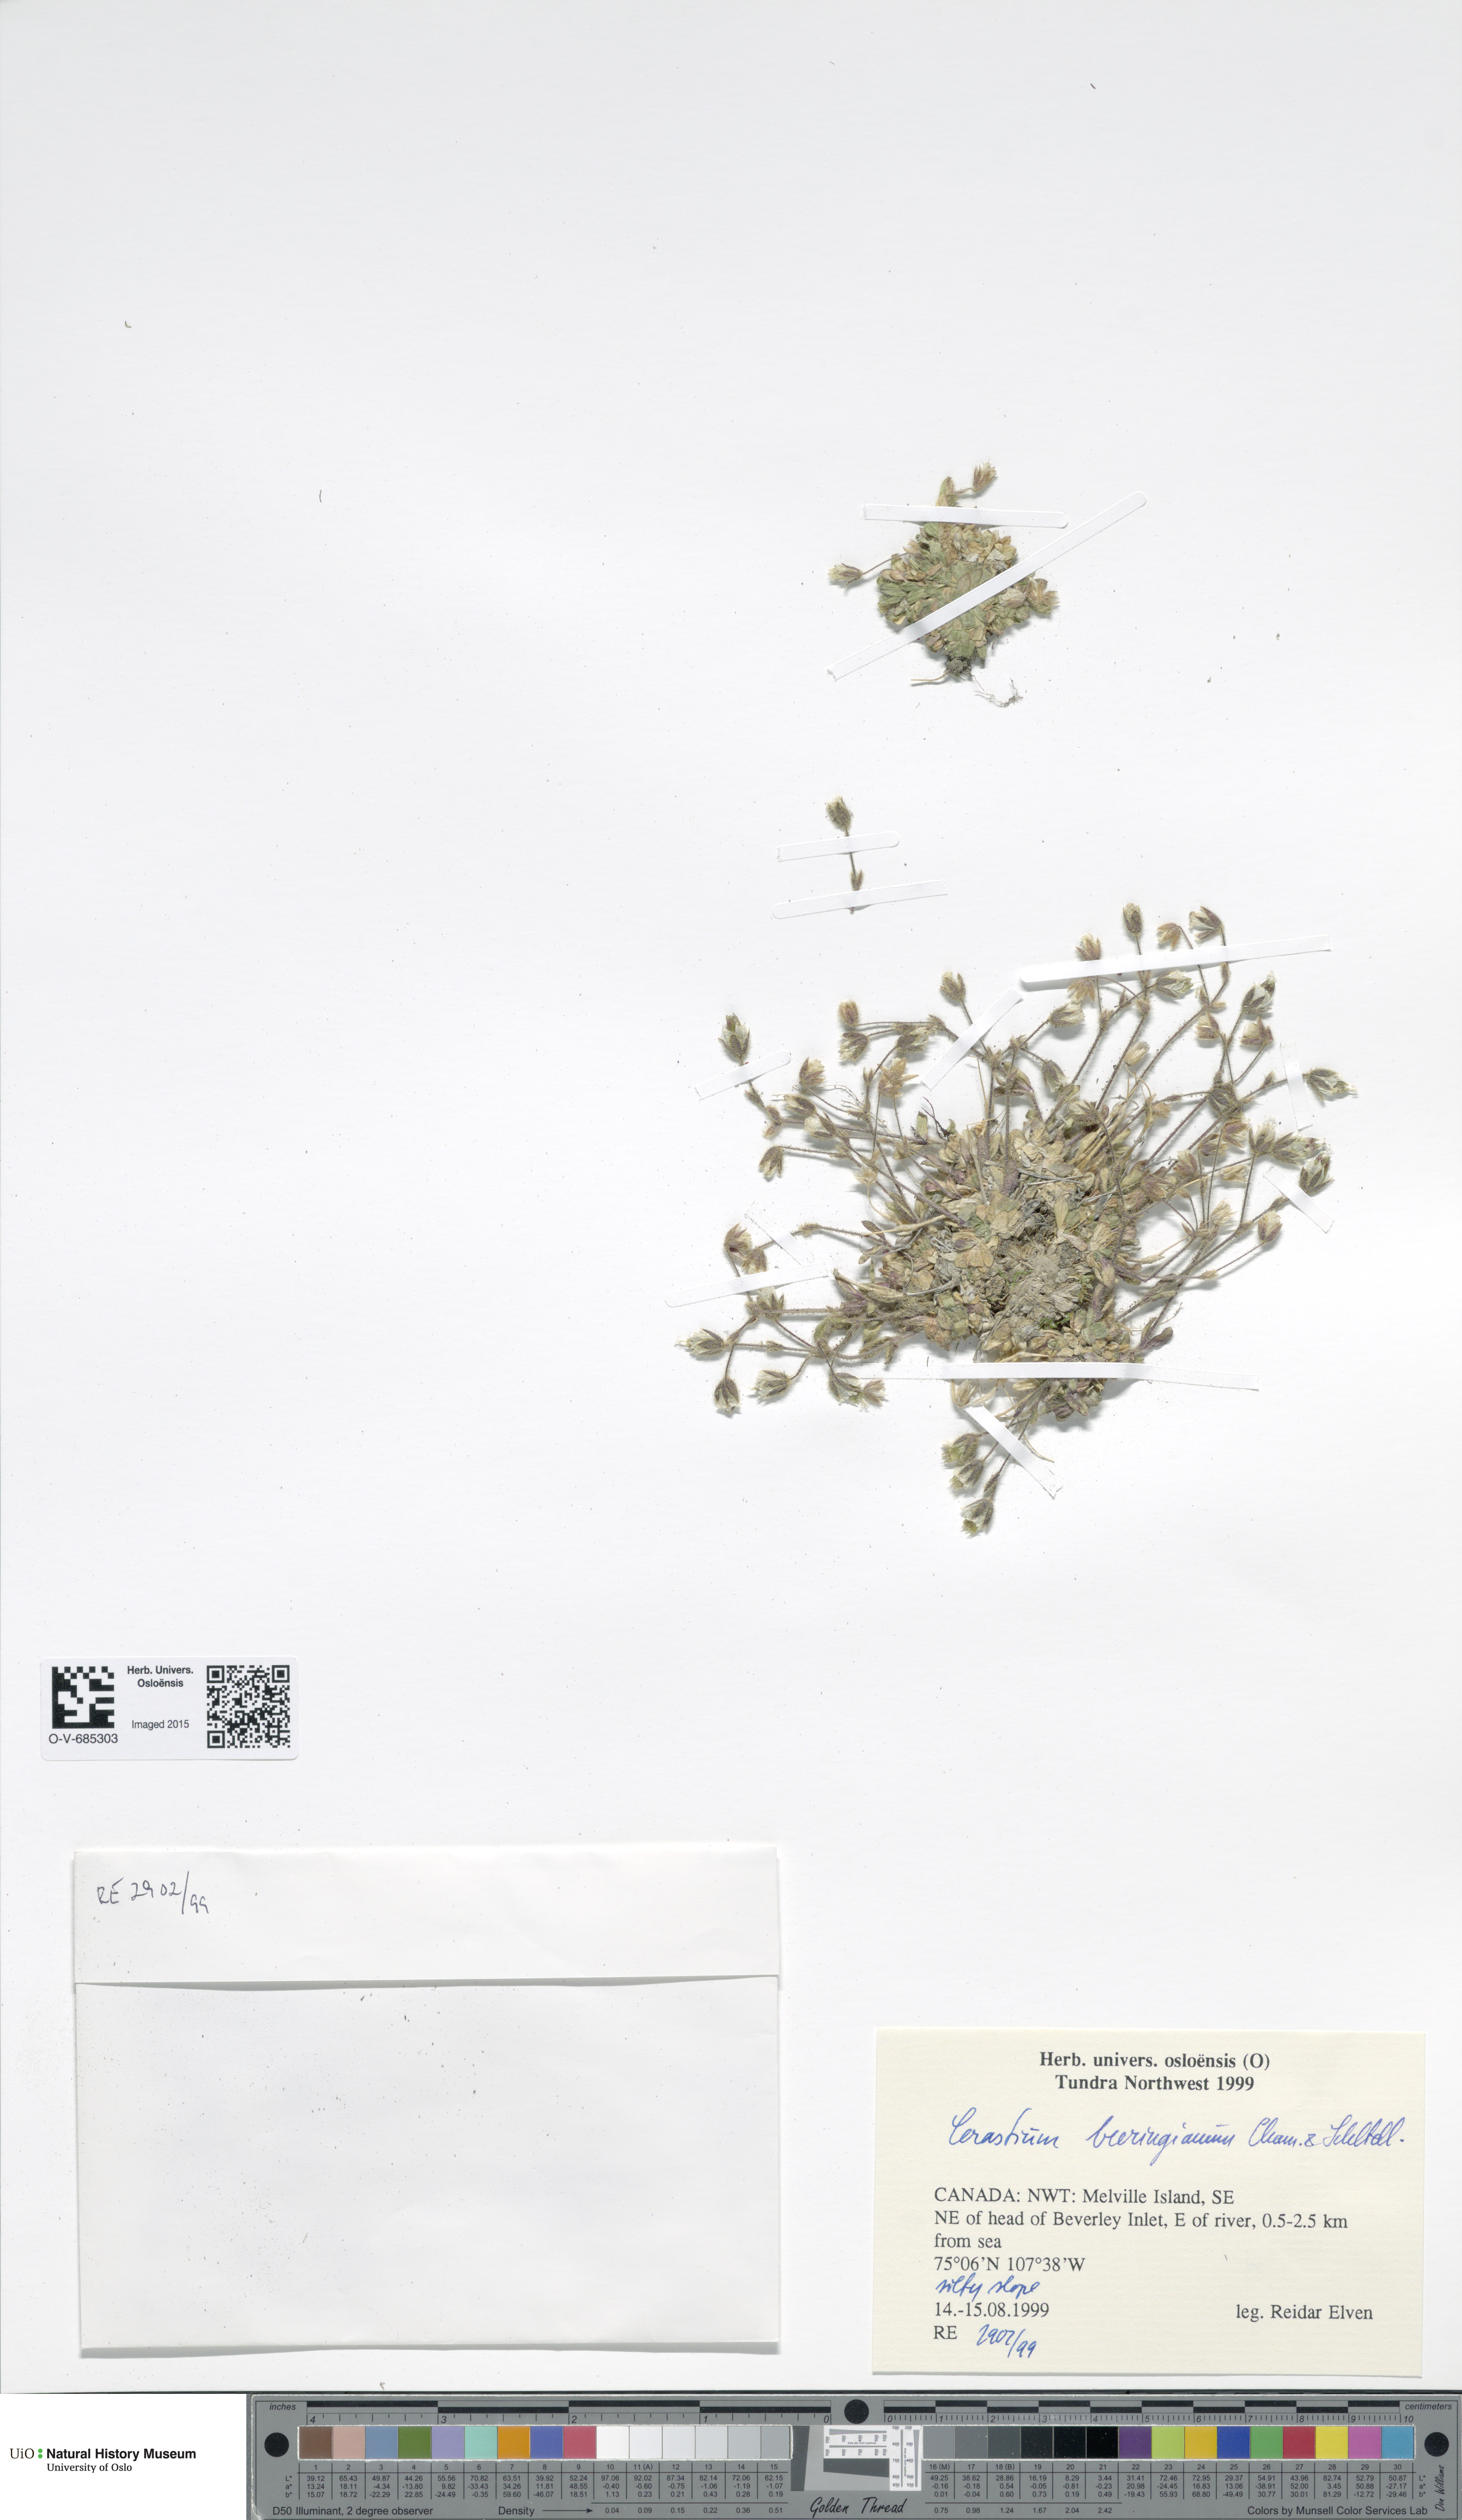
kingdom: Plantae
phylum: Tracheophyta
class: Magnoliopsida
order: Caryophyllales
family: Caryophyllaceae
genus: Cerastium
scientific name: Cerastium beeringianum
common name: Bering mouse-ear chickweed
